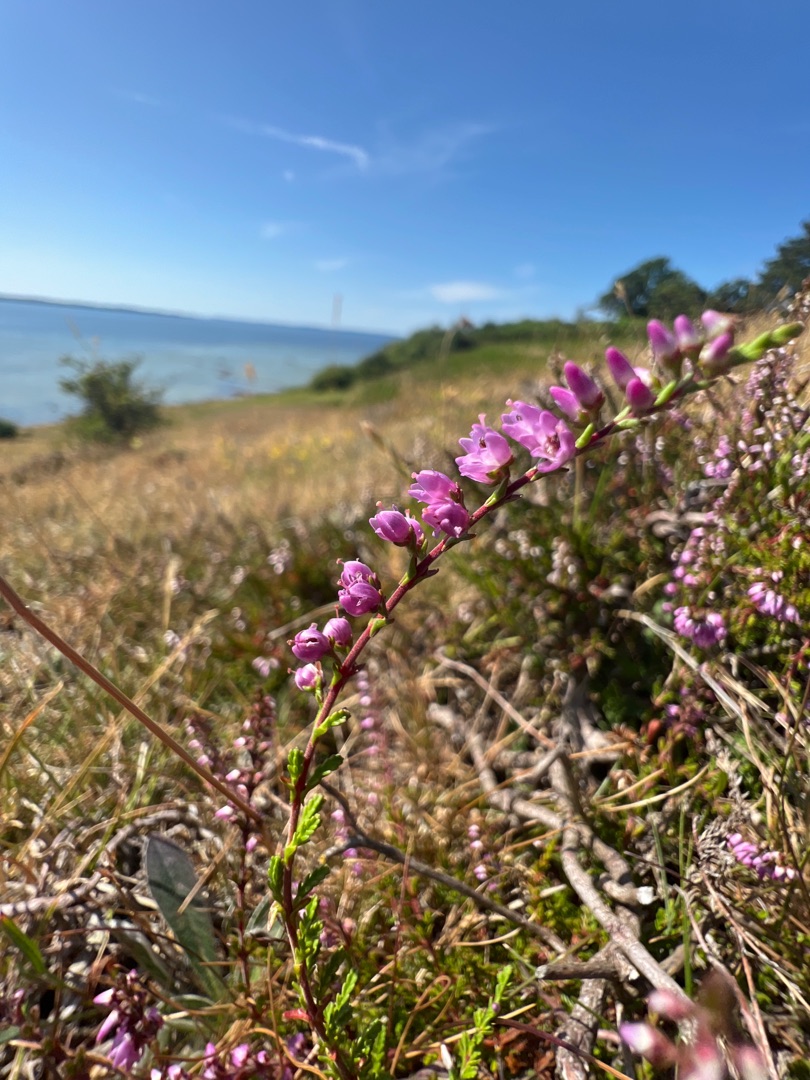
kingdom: Plantae
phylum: Tracheophyta
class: Magnoliopsida
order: Ericales
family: Ericaceae
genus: Calluna
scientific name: Calluna vulgaris
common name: Hedelyng
